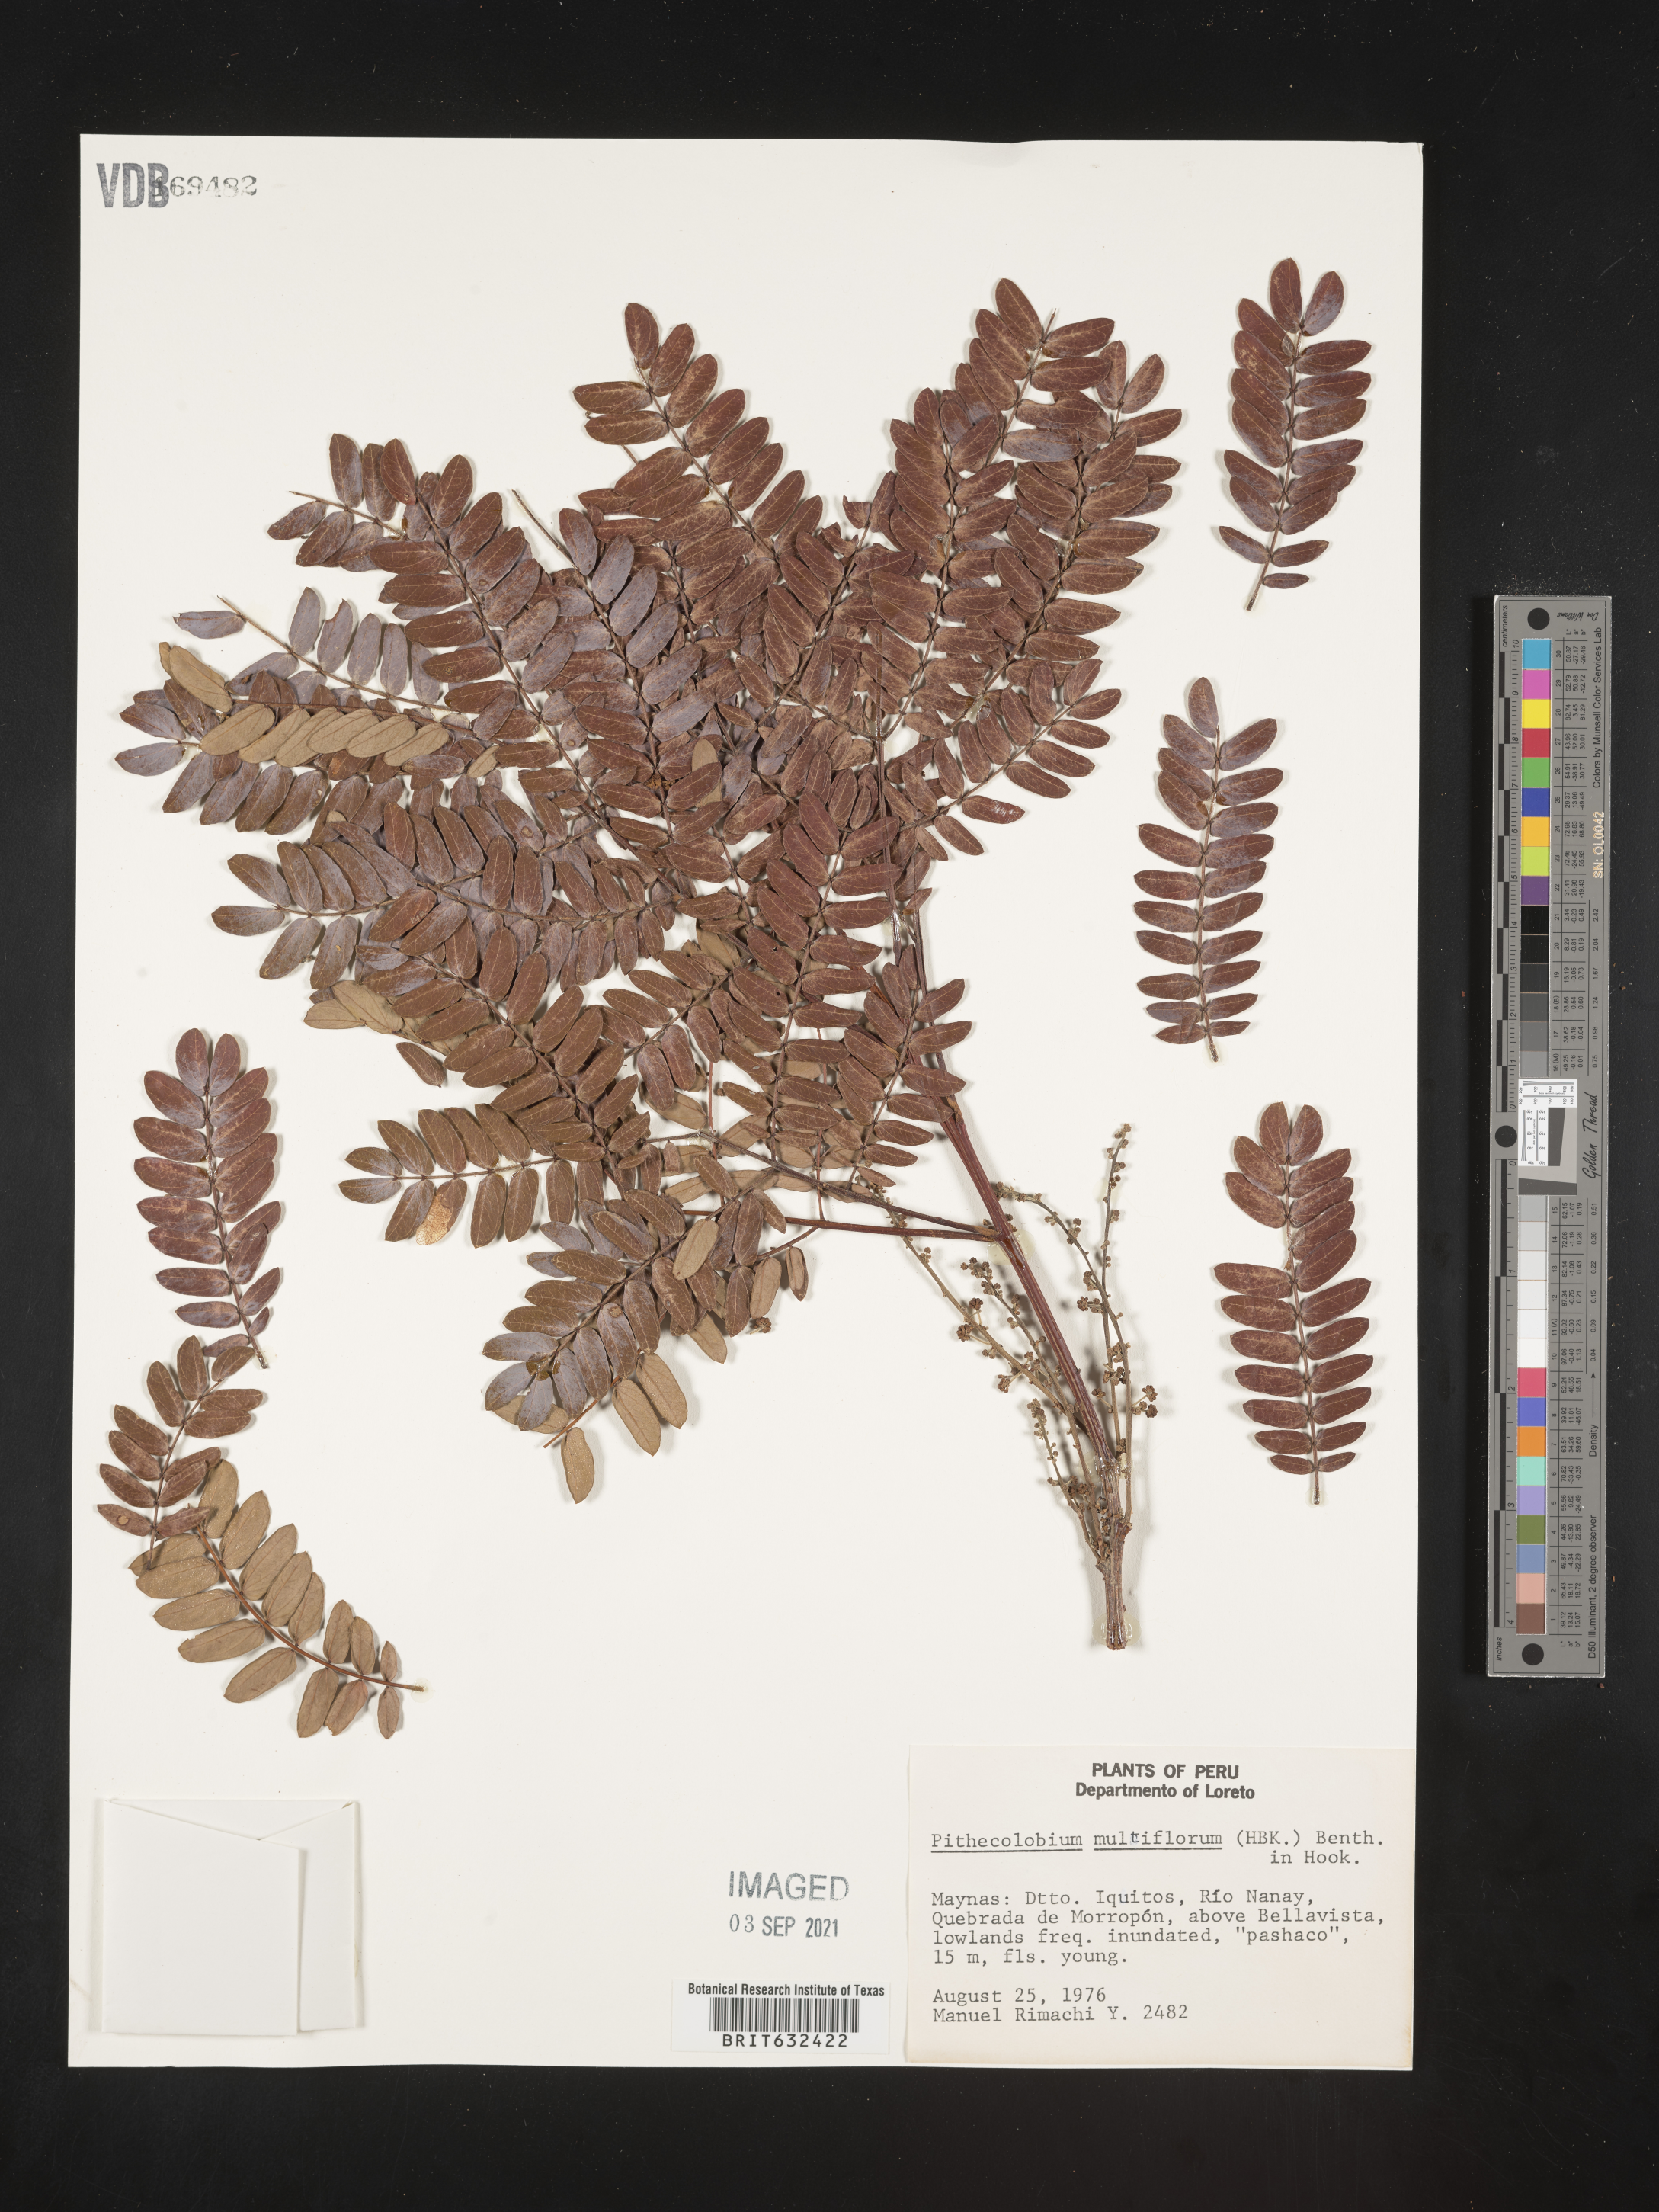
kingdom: Plantae
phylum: Tracheophyta
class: Magnoliopsida
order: Fabales
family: Fabaceae
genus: Pithecellobium
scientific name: Pithecellobium
